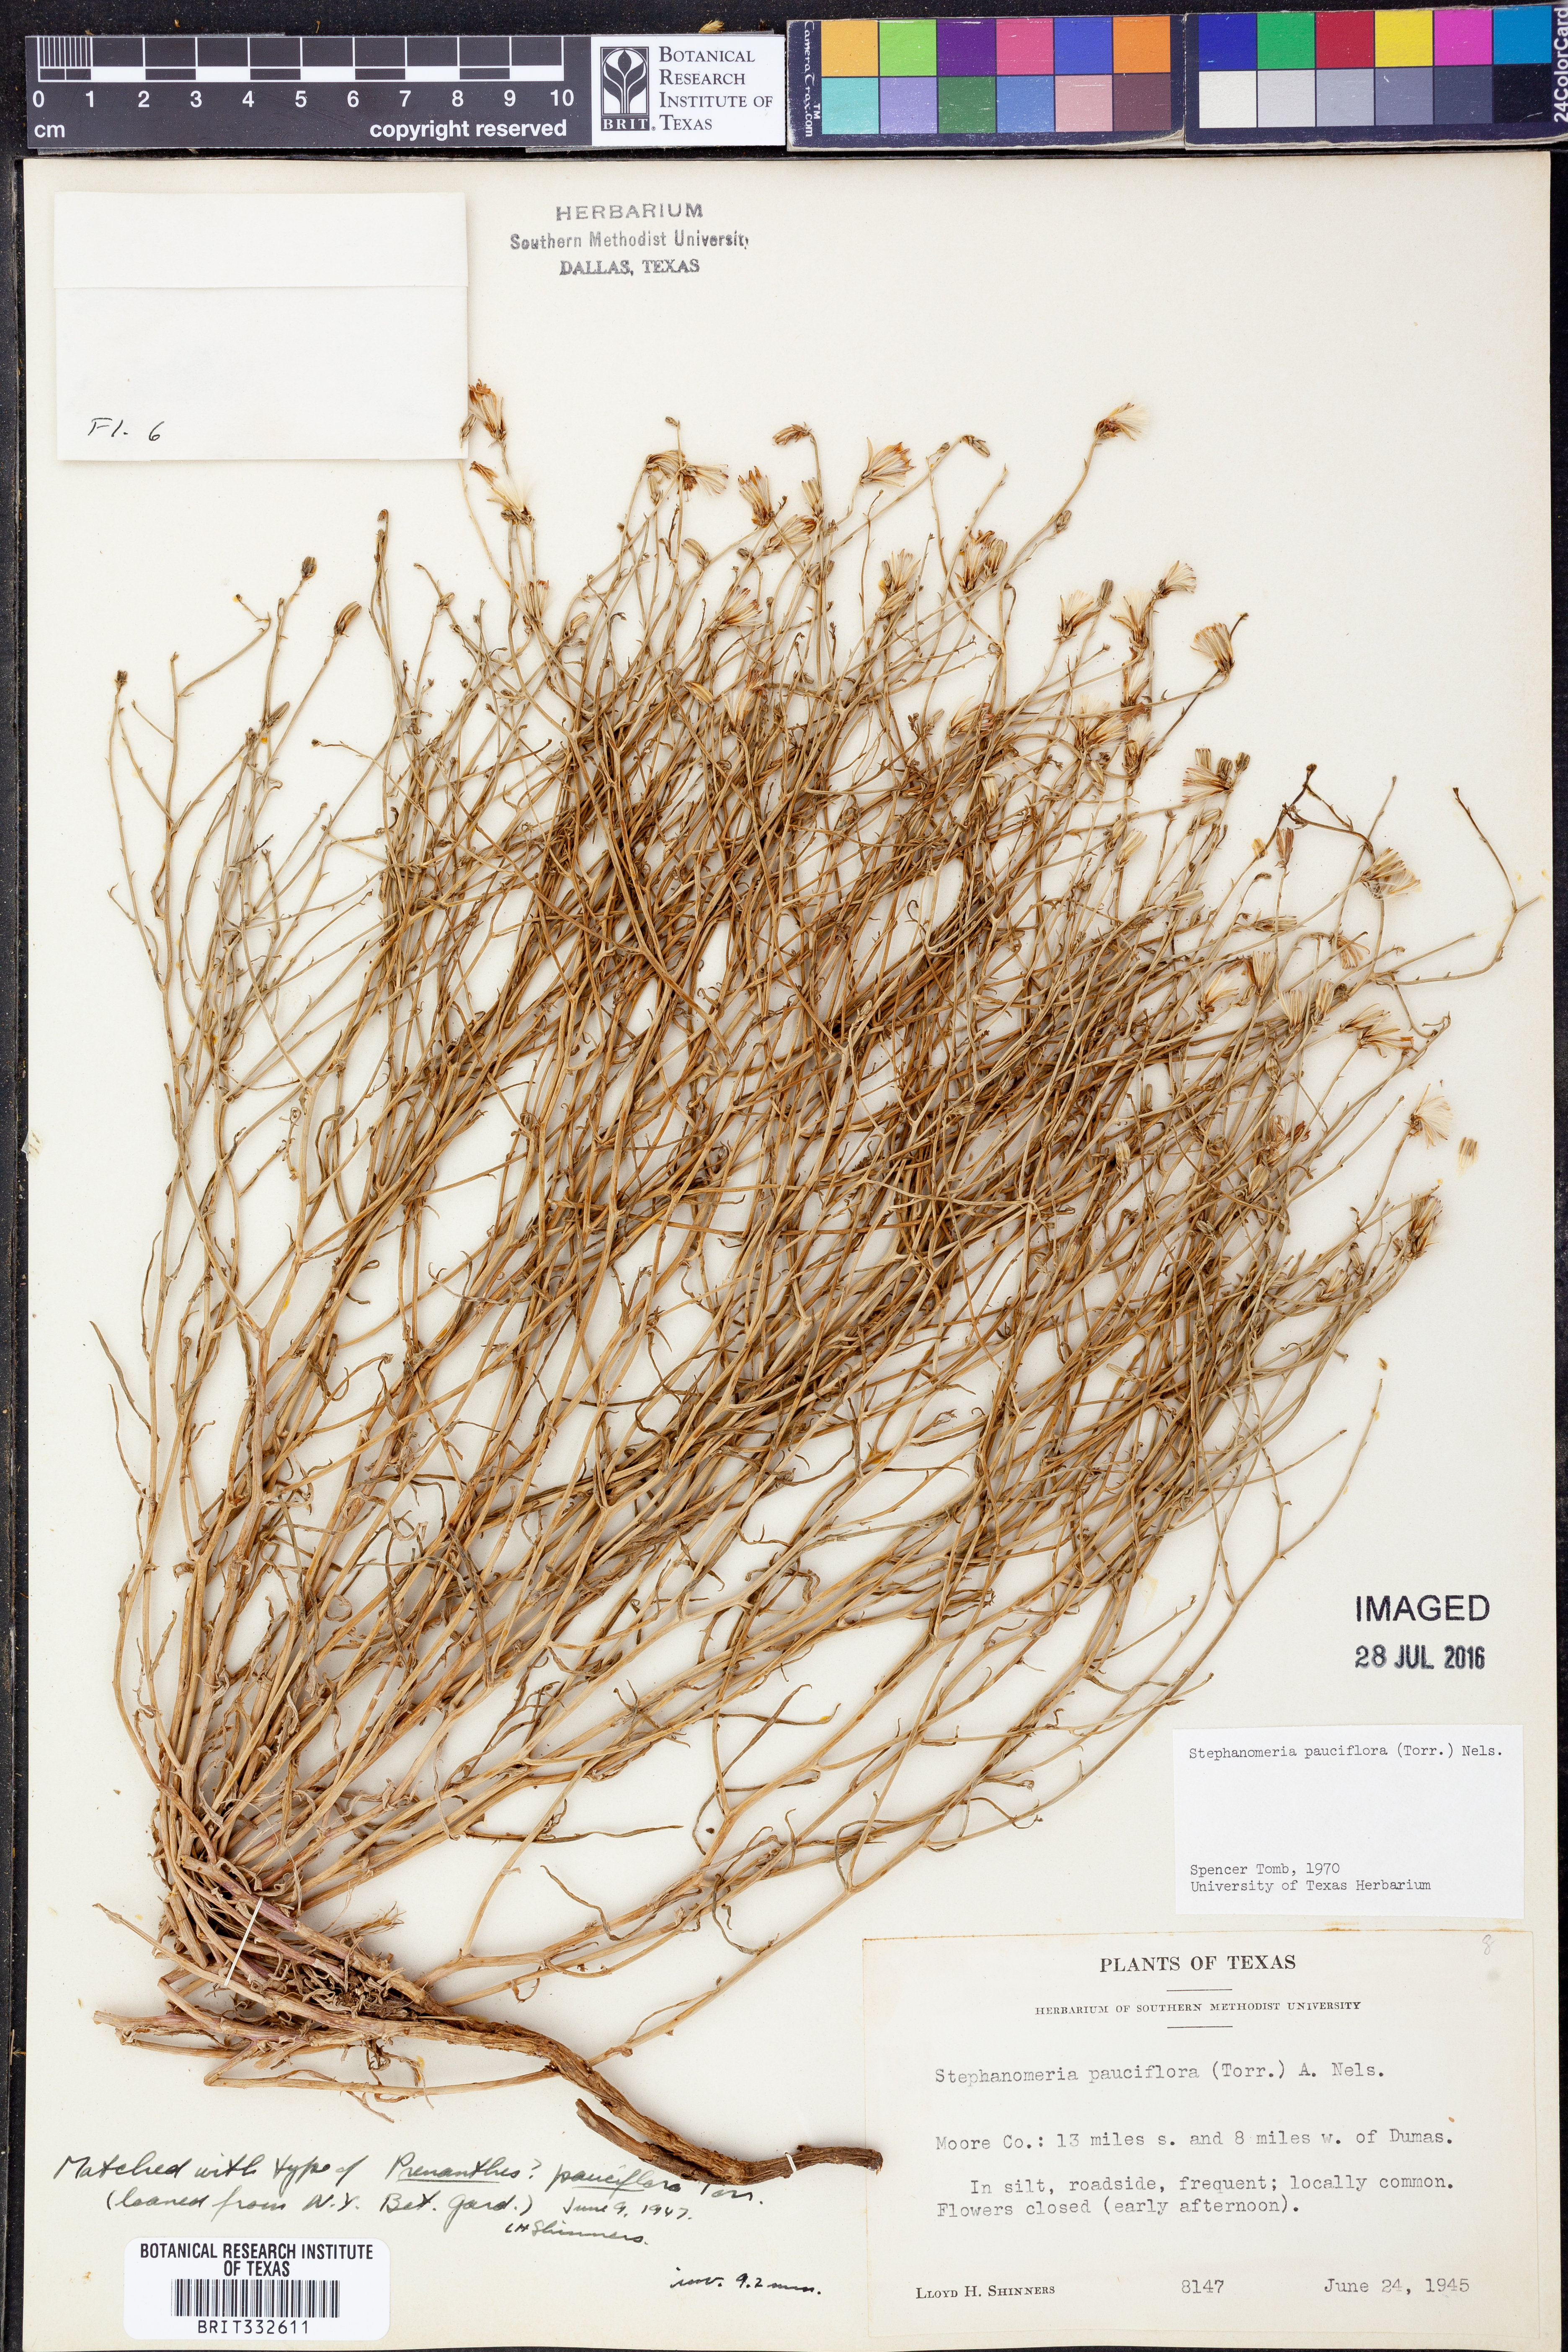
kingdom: Plantae
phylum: Tracheophyta
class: Magnoliopsida
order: Asterales
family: Asteraceae
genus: Stephanomeria
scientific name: Stephanomeria pauciflora
